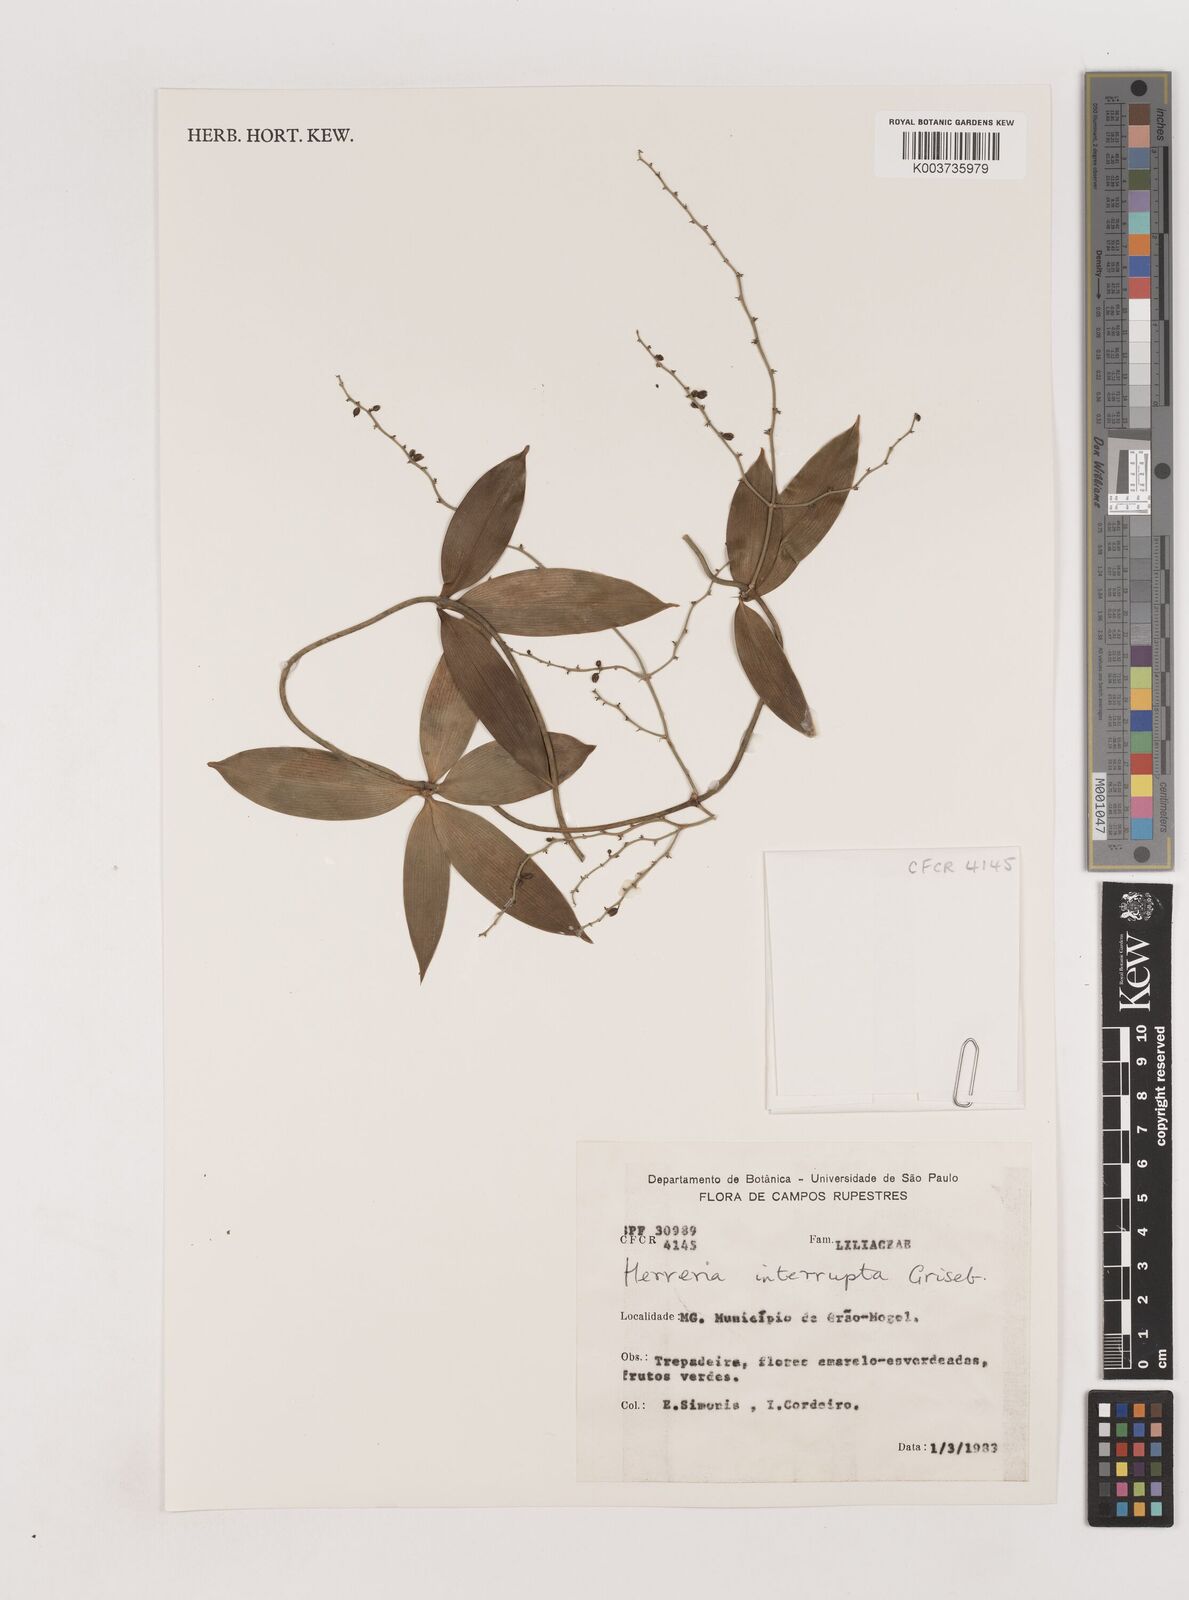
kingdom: Plantae
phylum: Tracheophyta
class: Liliopsida
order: Asparagales
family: Asparagaceae
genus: Herreria
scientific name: Herreria salsaparilha
